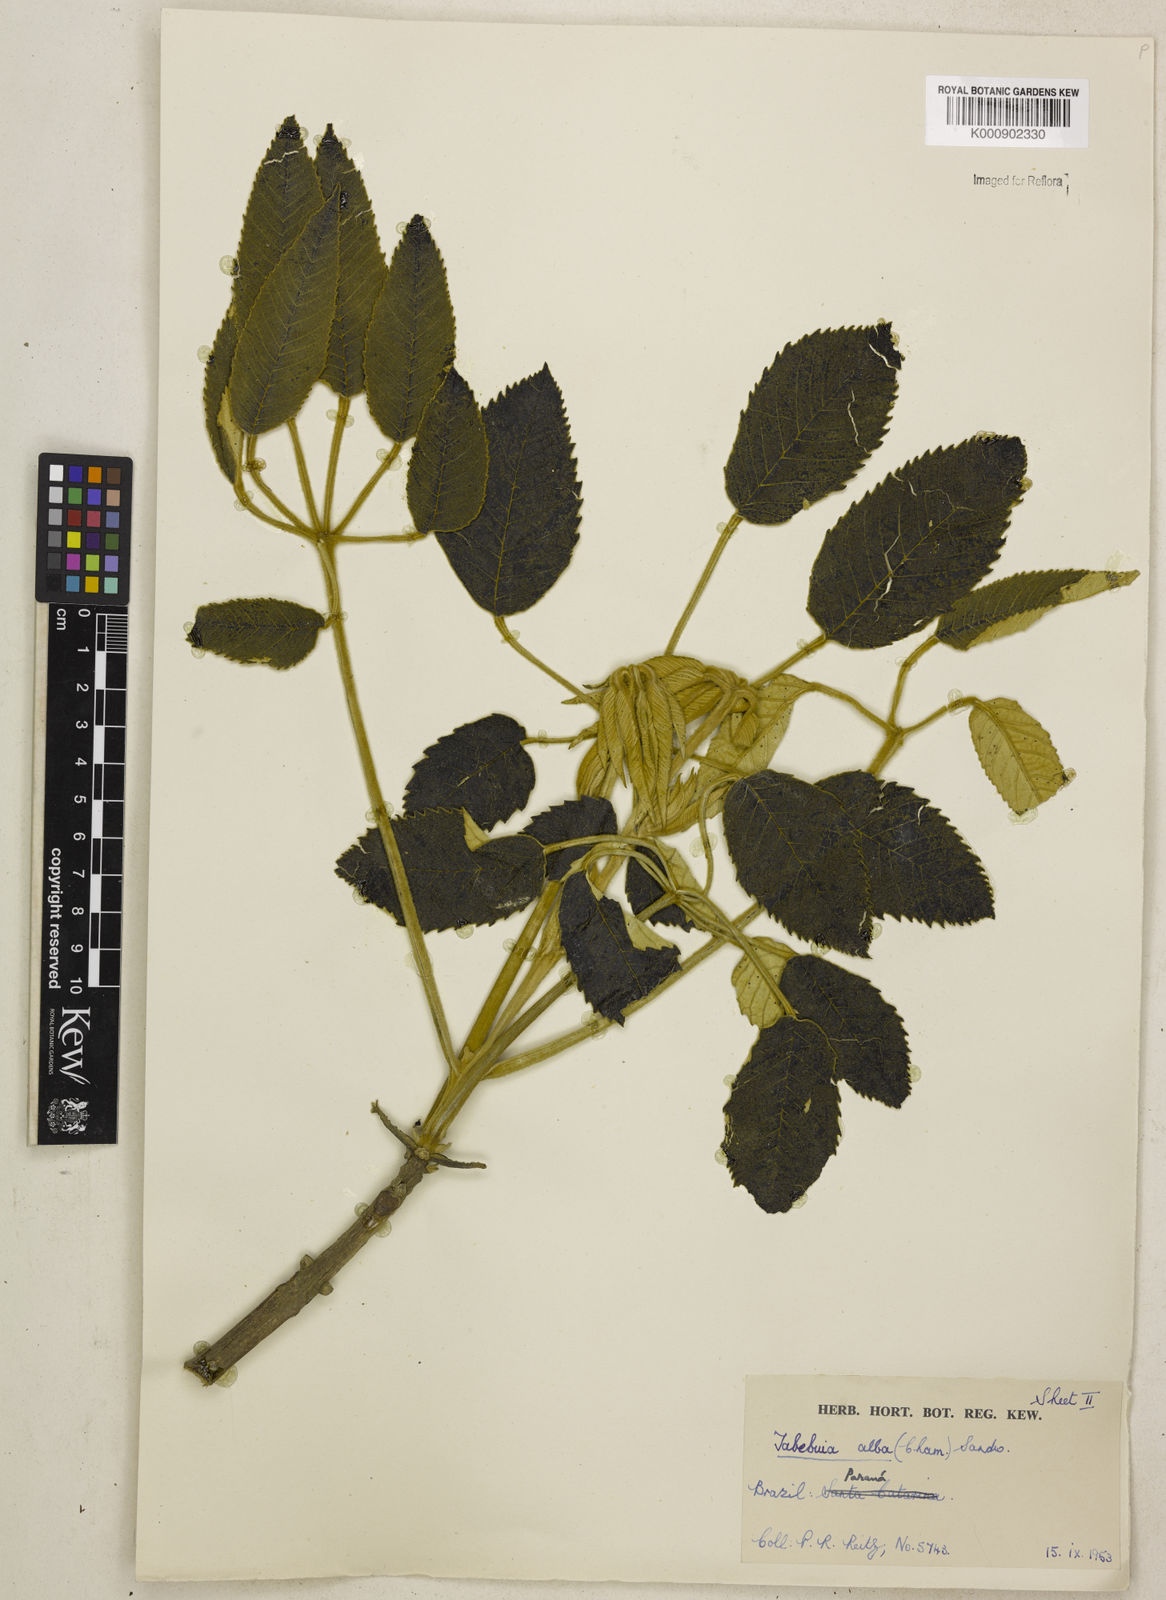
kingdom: Plantae
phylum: Tracheophyta
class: Magnoliopsida
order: Lamiales
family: Bignoniaceae
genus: Handroanthus
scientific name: Handroanthus albus
